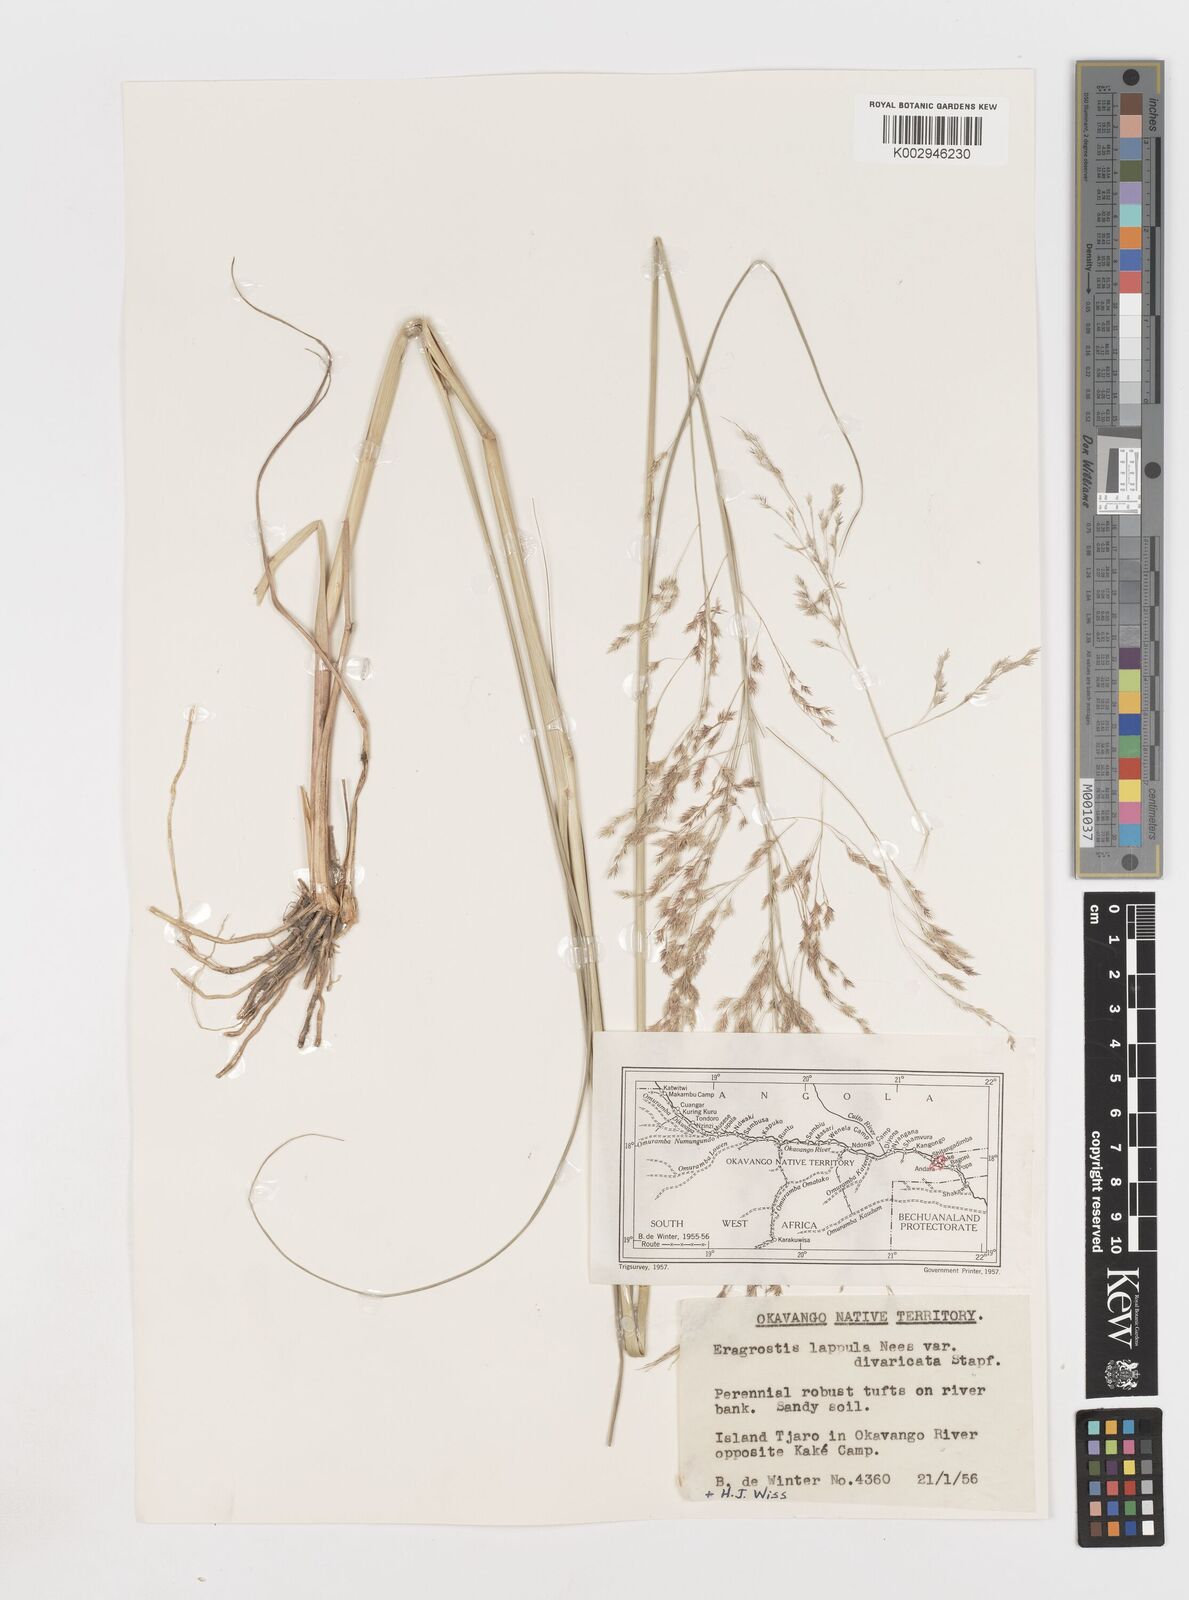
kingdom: Plantae
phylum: Tracheophyta
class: Liliopsida
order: Poales
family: Poaceae
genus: Eragrostis
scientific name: Eragrostis lappula
